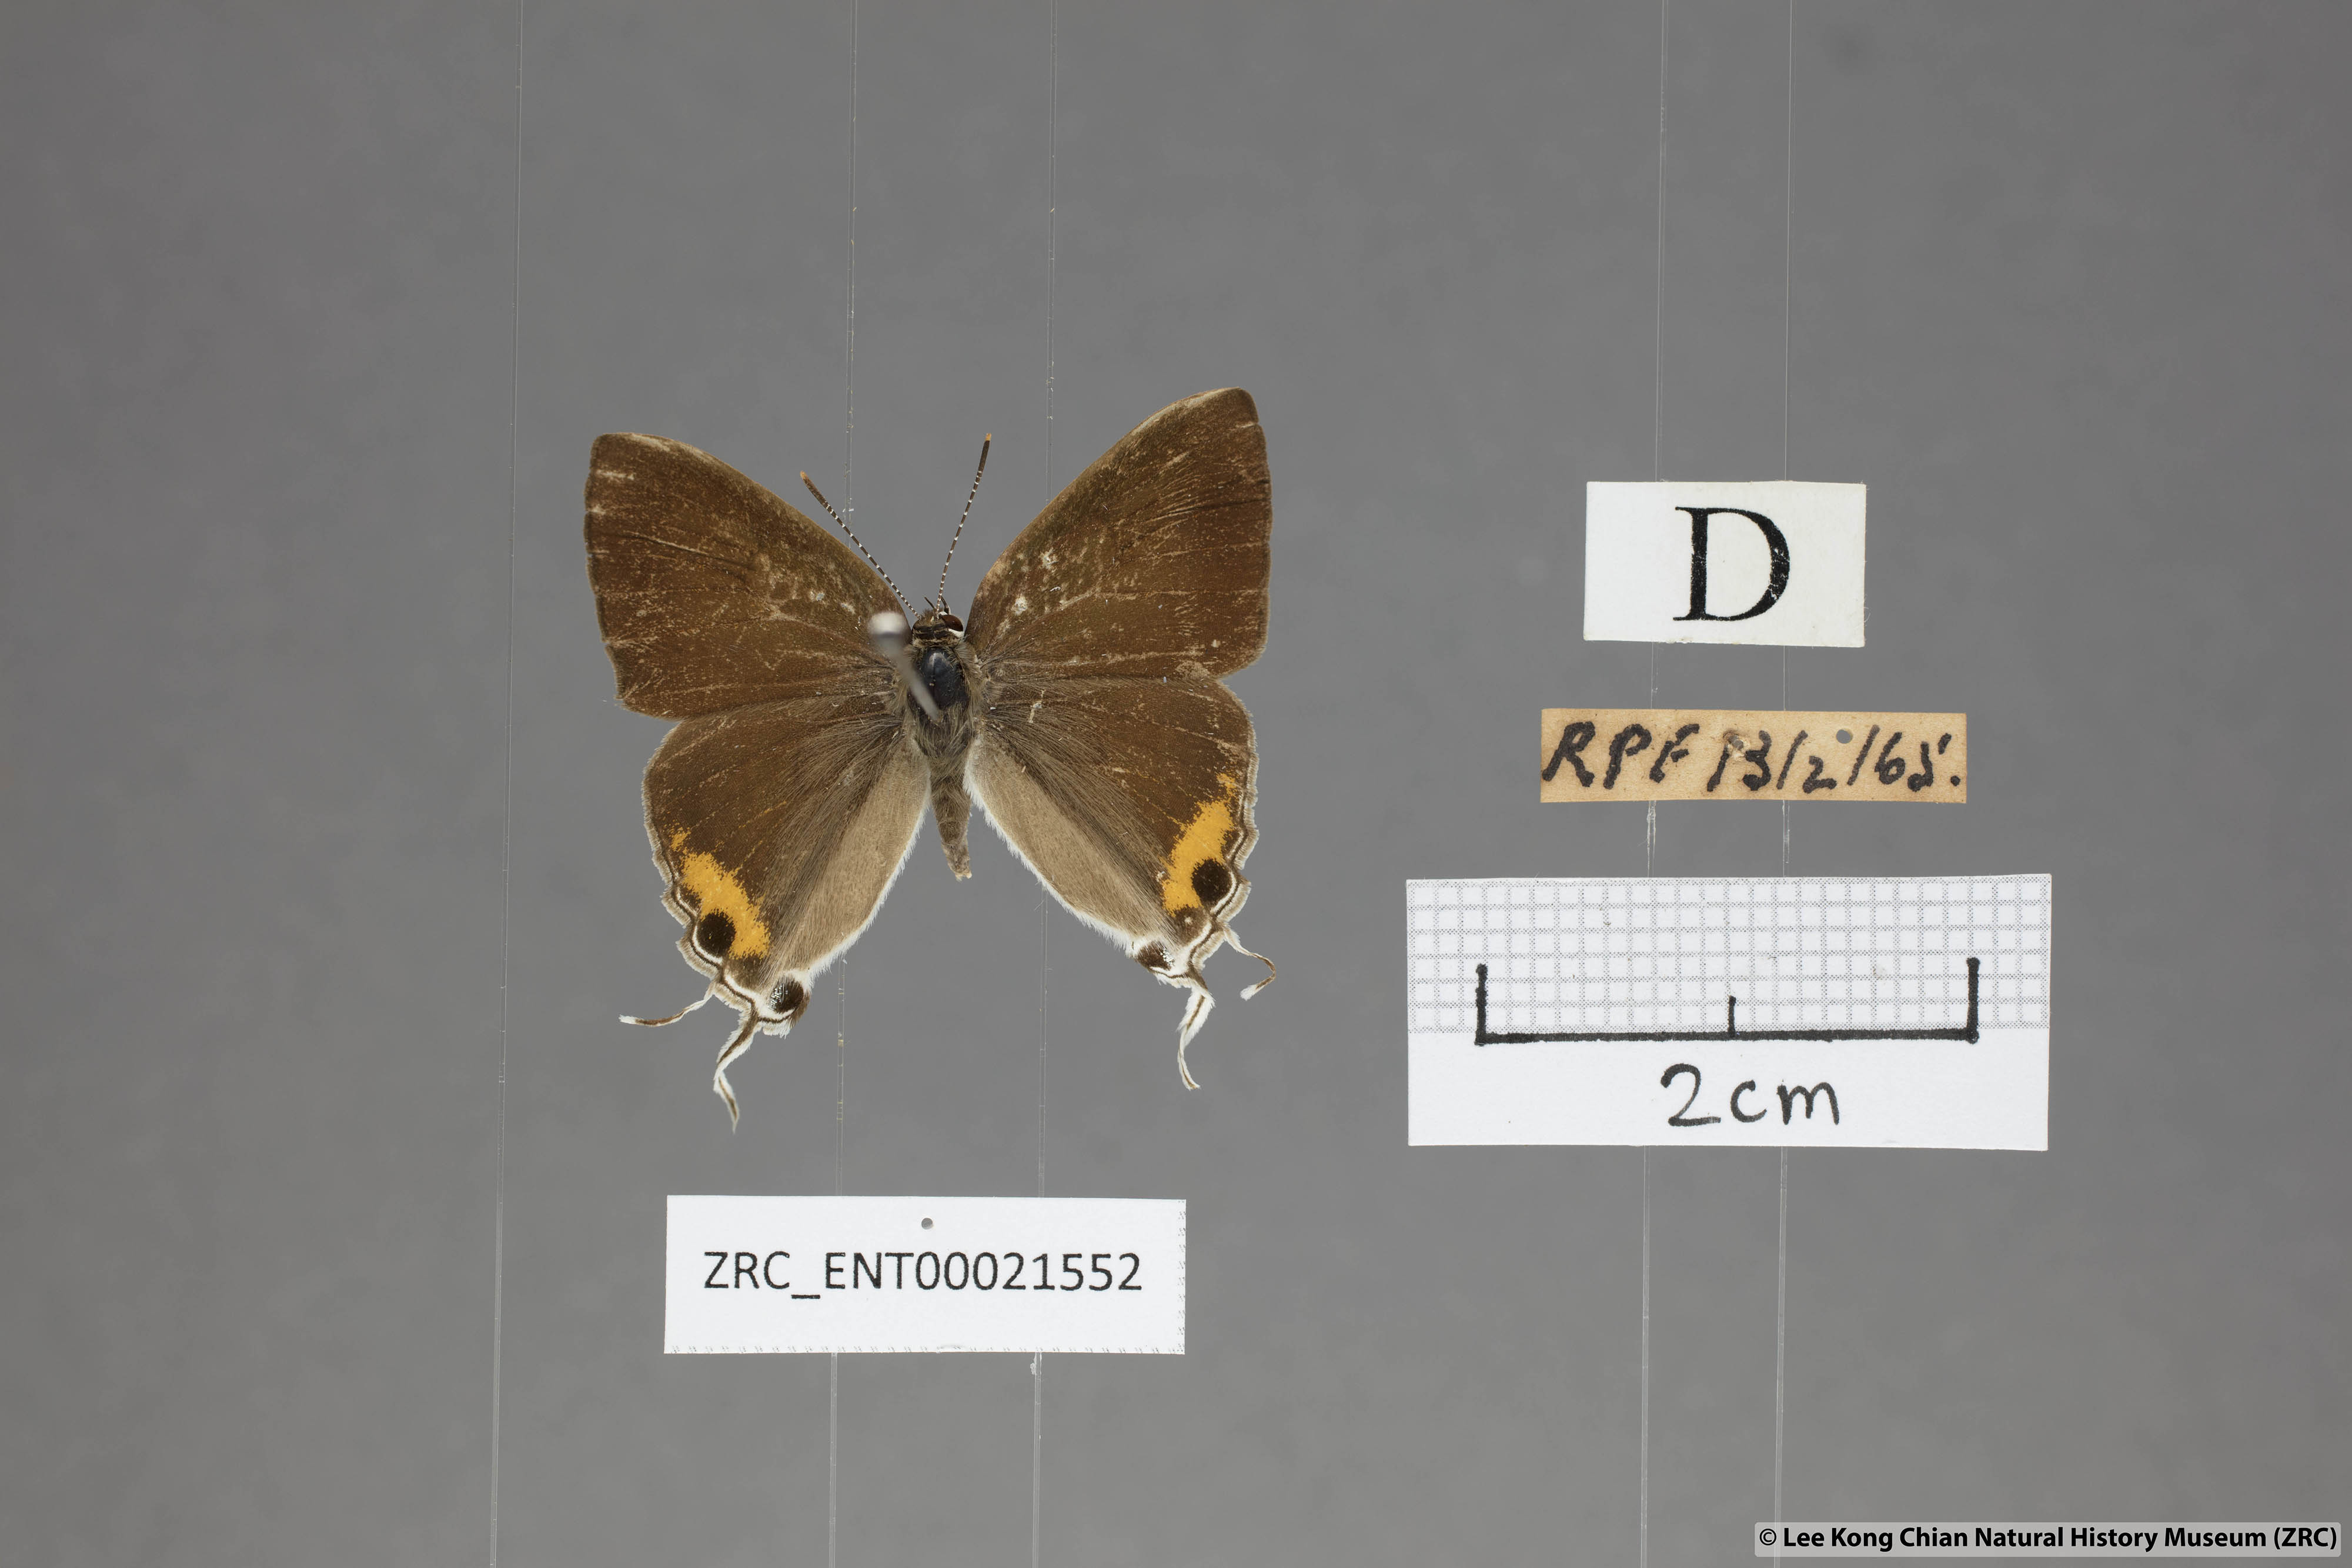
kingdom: Animalia
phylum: Arthropoda
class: Insecta
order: Lepidoptera
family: Lycaenidae
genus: Hypolycaena
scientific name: Hypolycaena thecloides
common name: Dark tit
